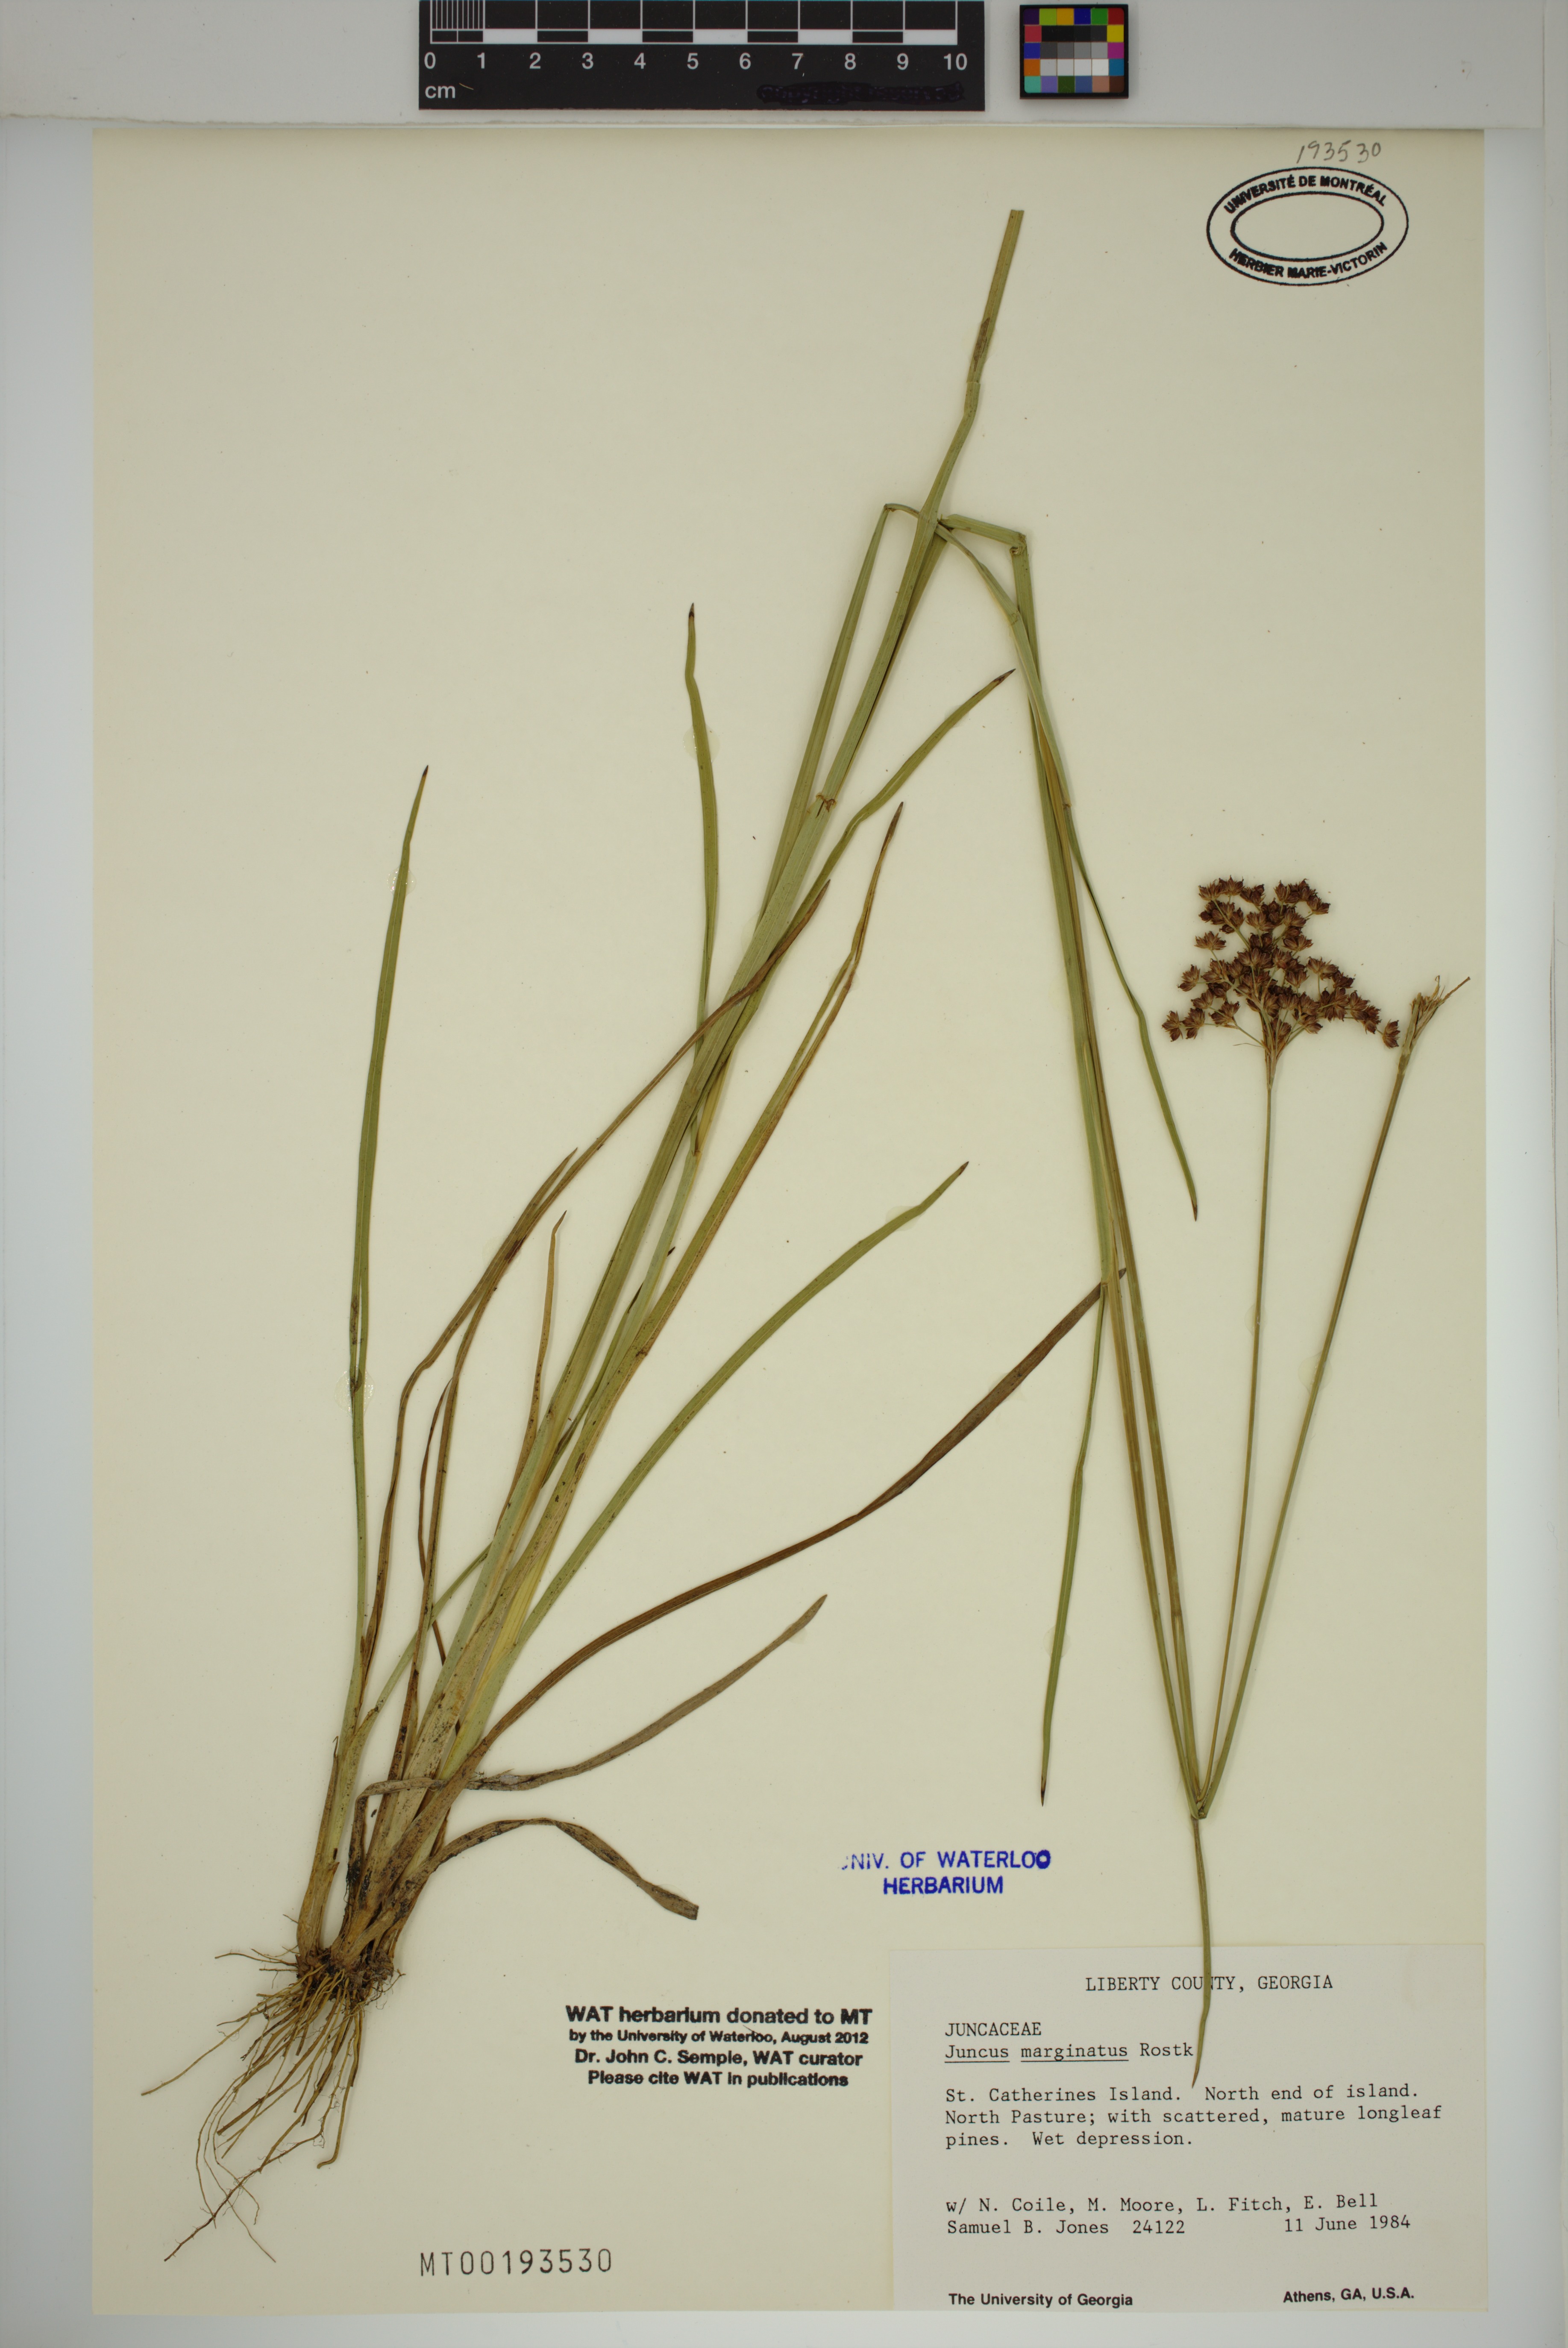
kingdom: Plantae
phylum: Tracheophyta
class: Liliopsida
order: Poales
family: Juncaceae
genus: Juncus
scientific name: Juncus marginatus
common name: Grass-leaf rush
